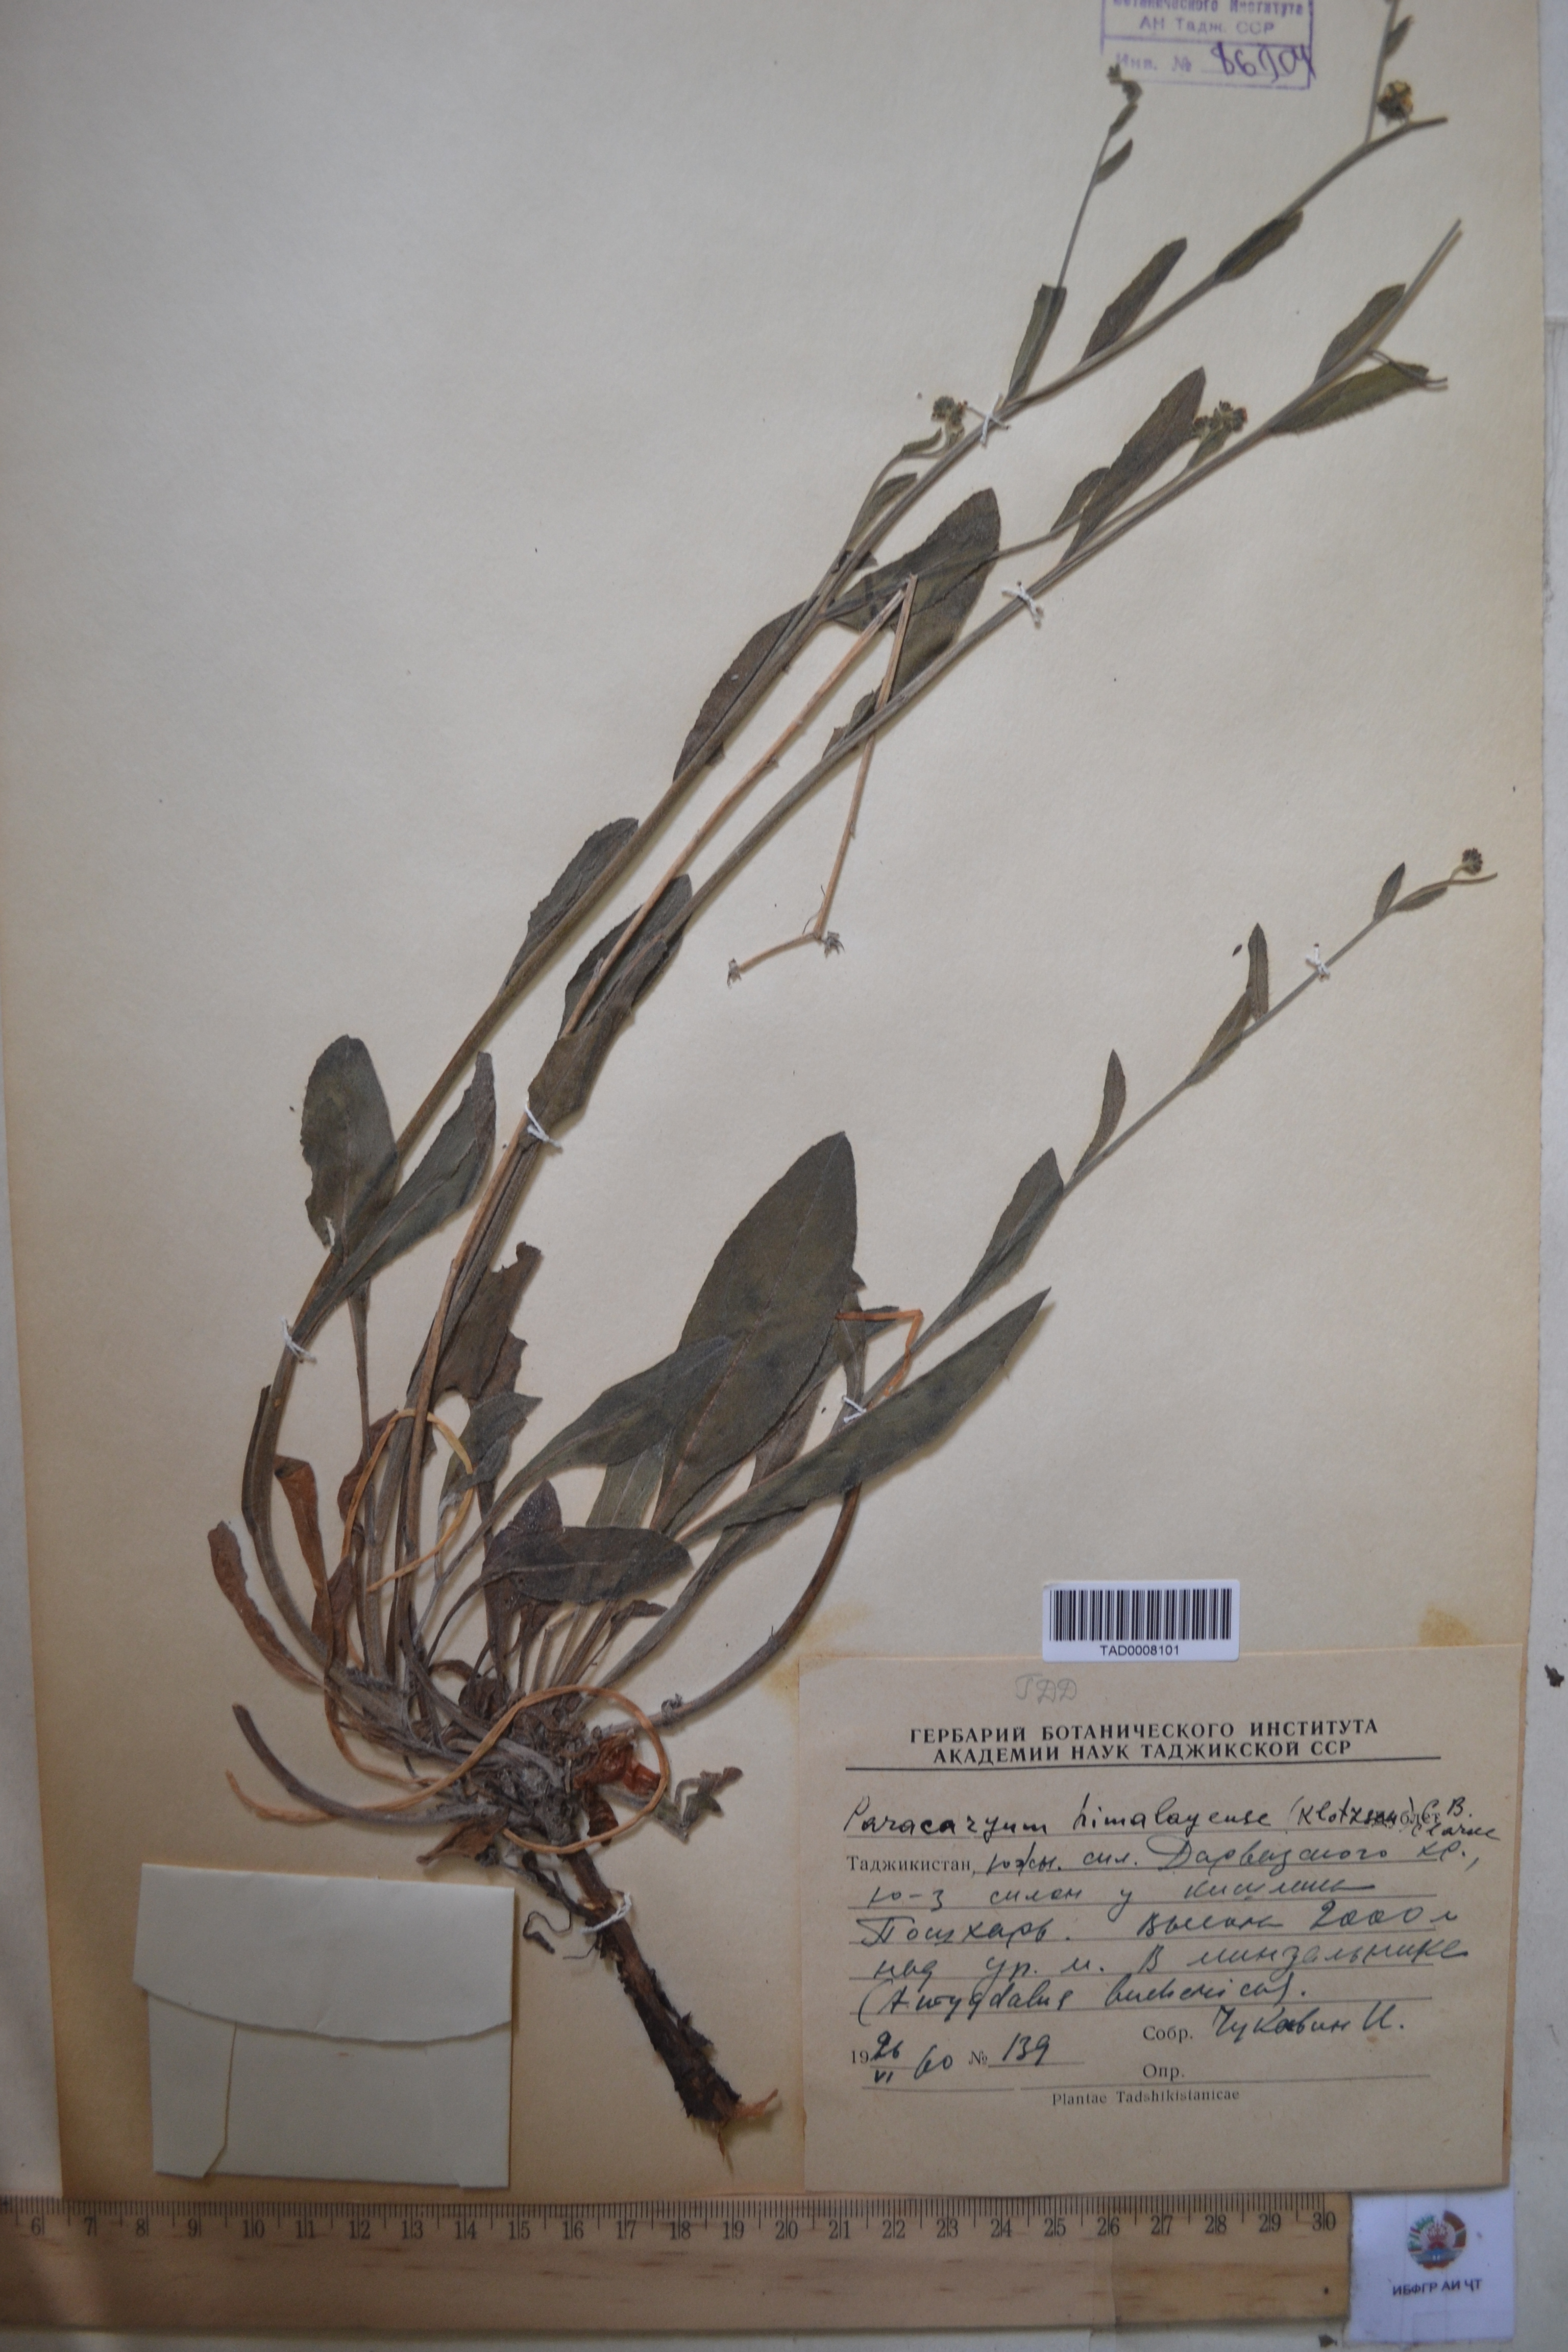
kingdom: Plantae
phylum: Tracheophyta
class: Magnoliopsida
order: Boraginales
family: Boraginaceae
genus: Paracaryum
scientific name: Paracaryum himalayense
